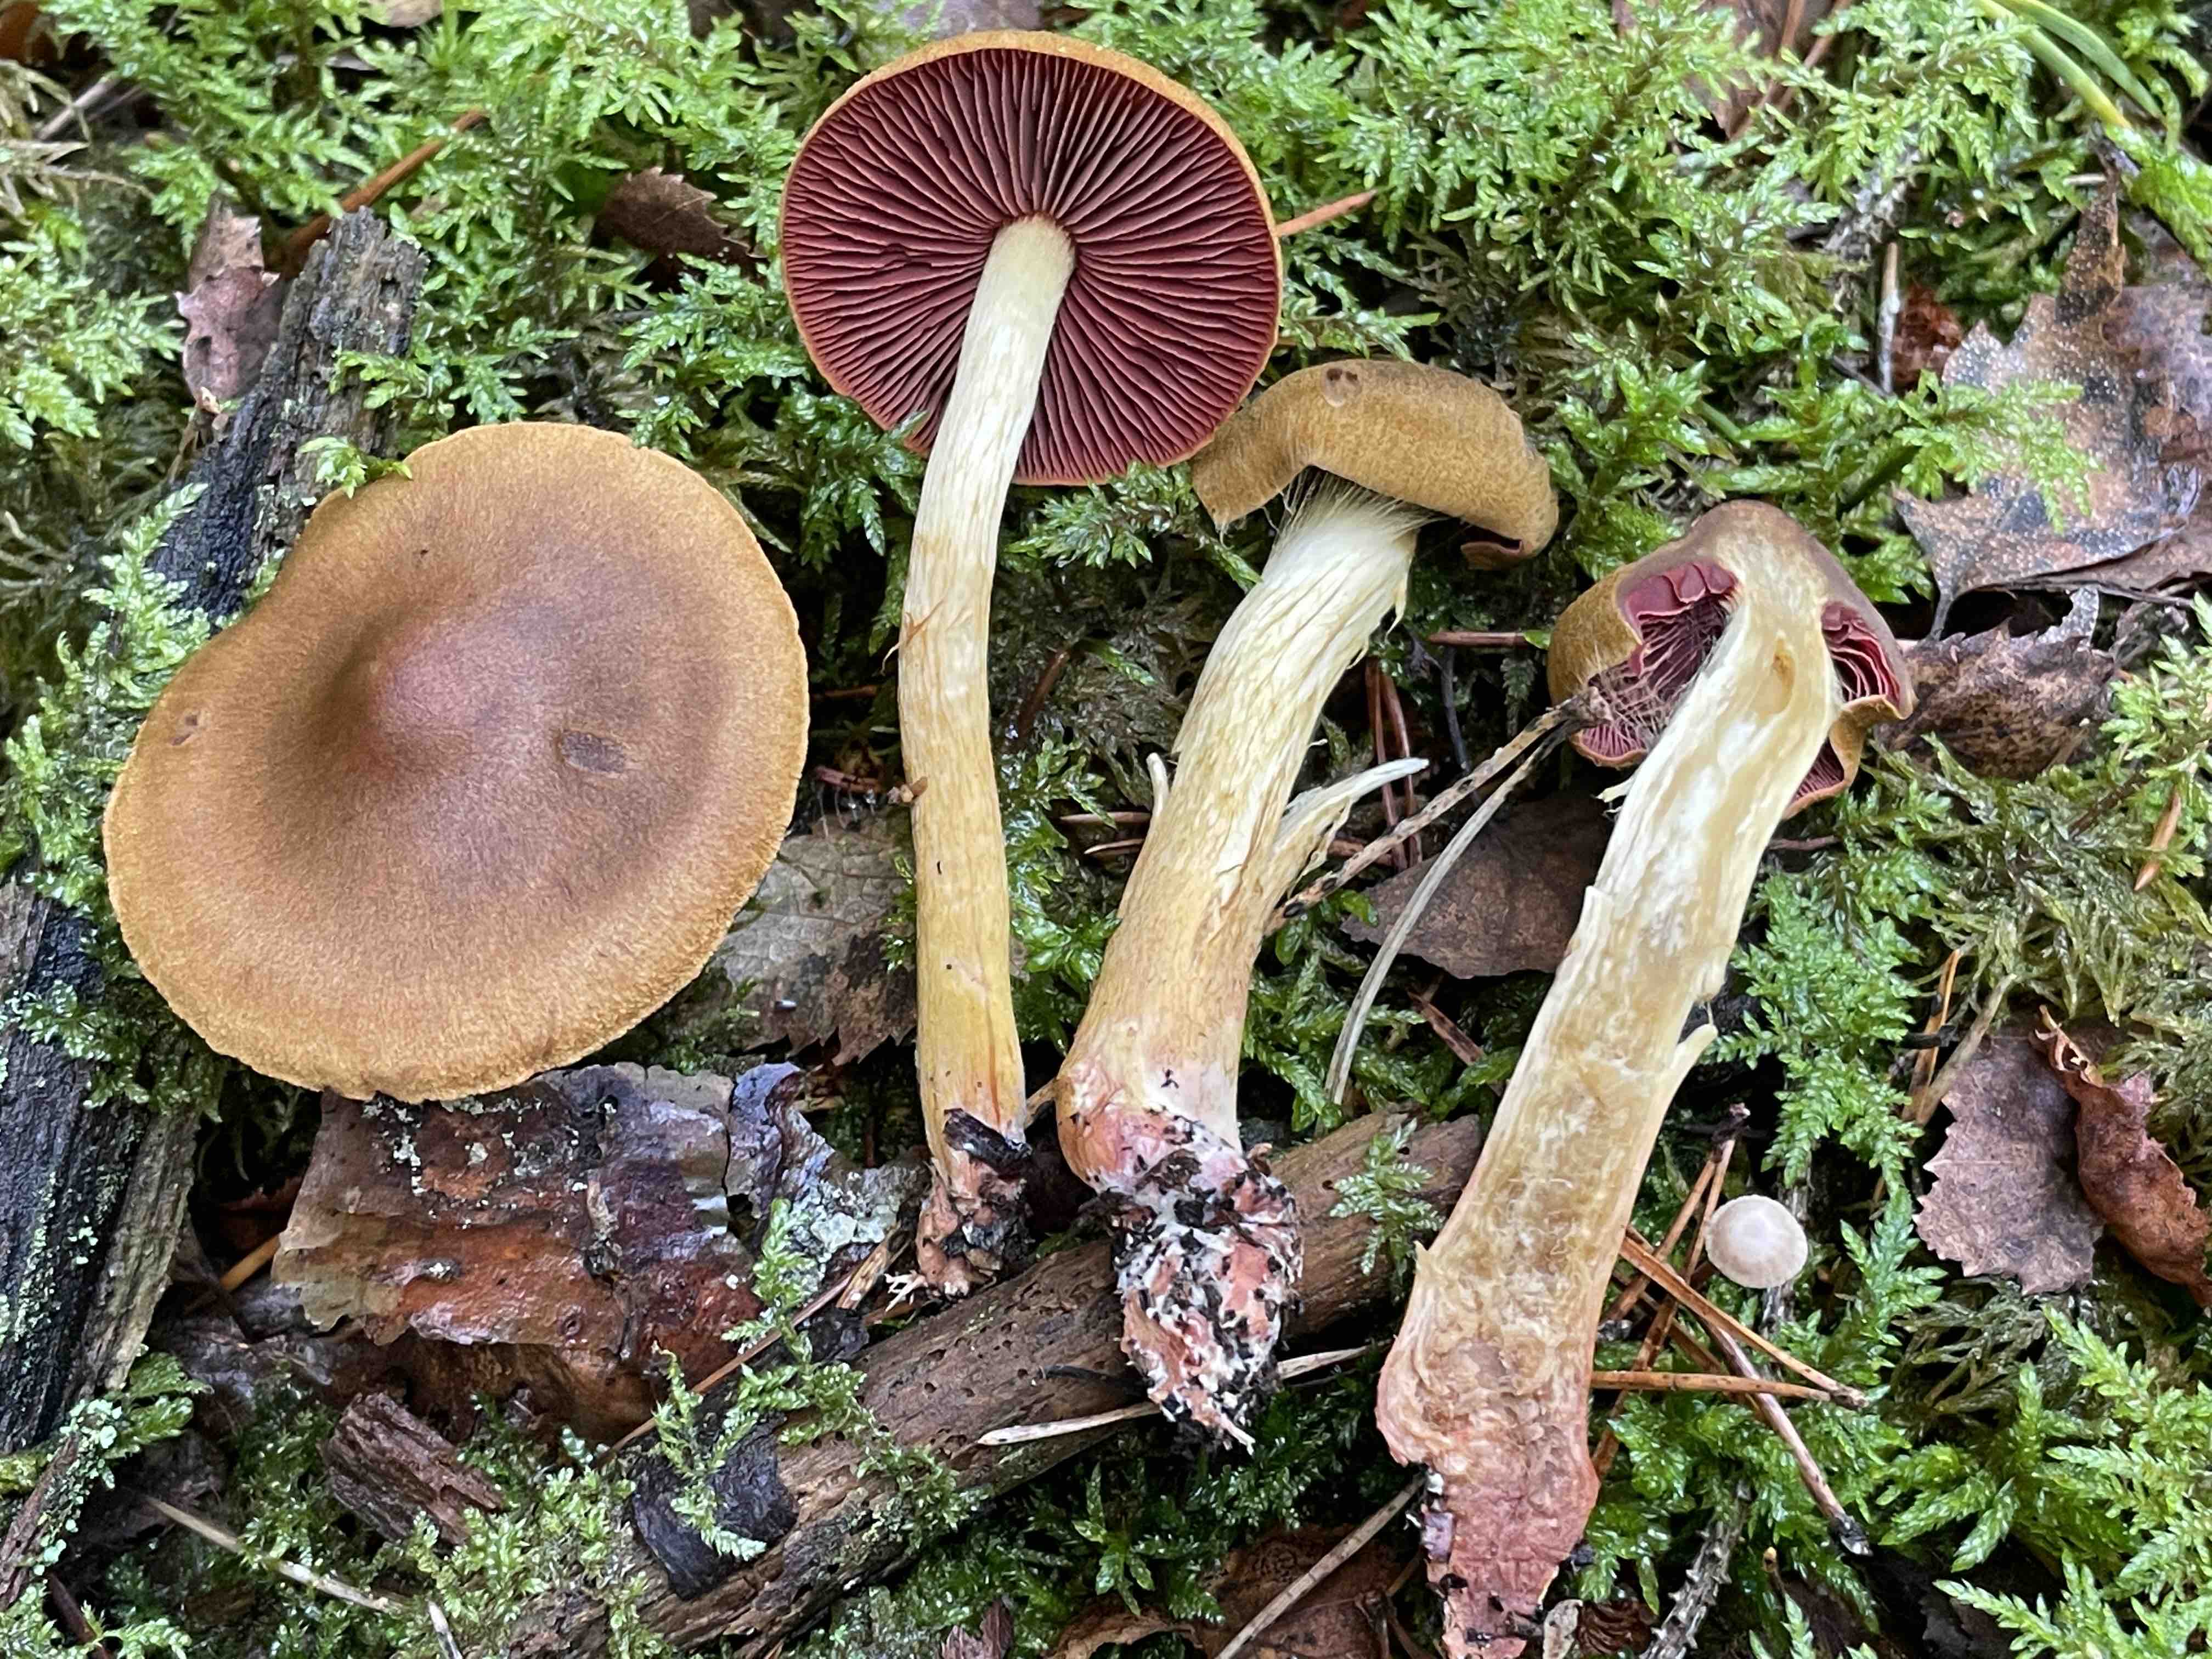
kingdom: Fungi
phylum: Basidiomycota
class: Agaricomycetes
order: Agaricales
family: Cortinariaceae
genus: Cortinarius
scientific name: Cortinarius
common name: cinnoberbladet slørhat
